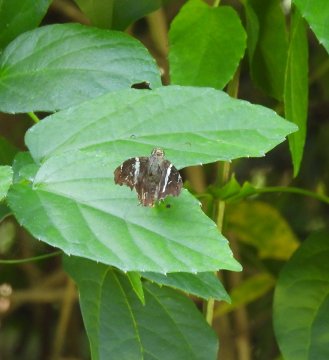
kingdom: Animalia
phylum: Arthropoda
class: Insecta
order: Lepidoptera
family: Hesperiidae
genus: Spathilepia
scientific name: Spathilepia clonius
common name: Falcate Skipper
